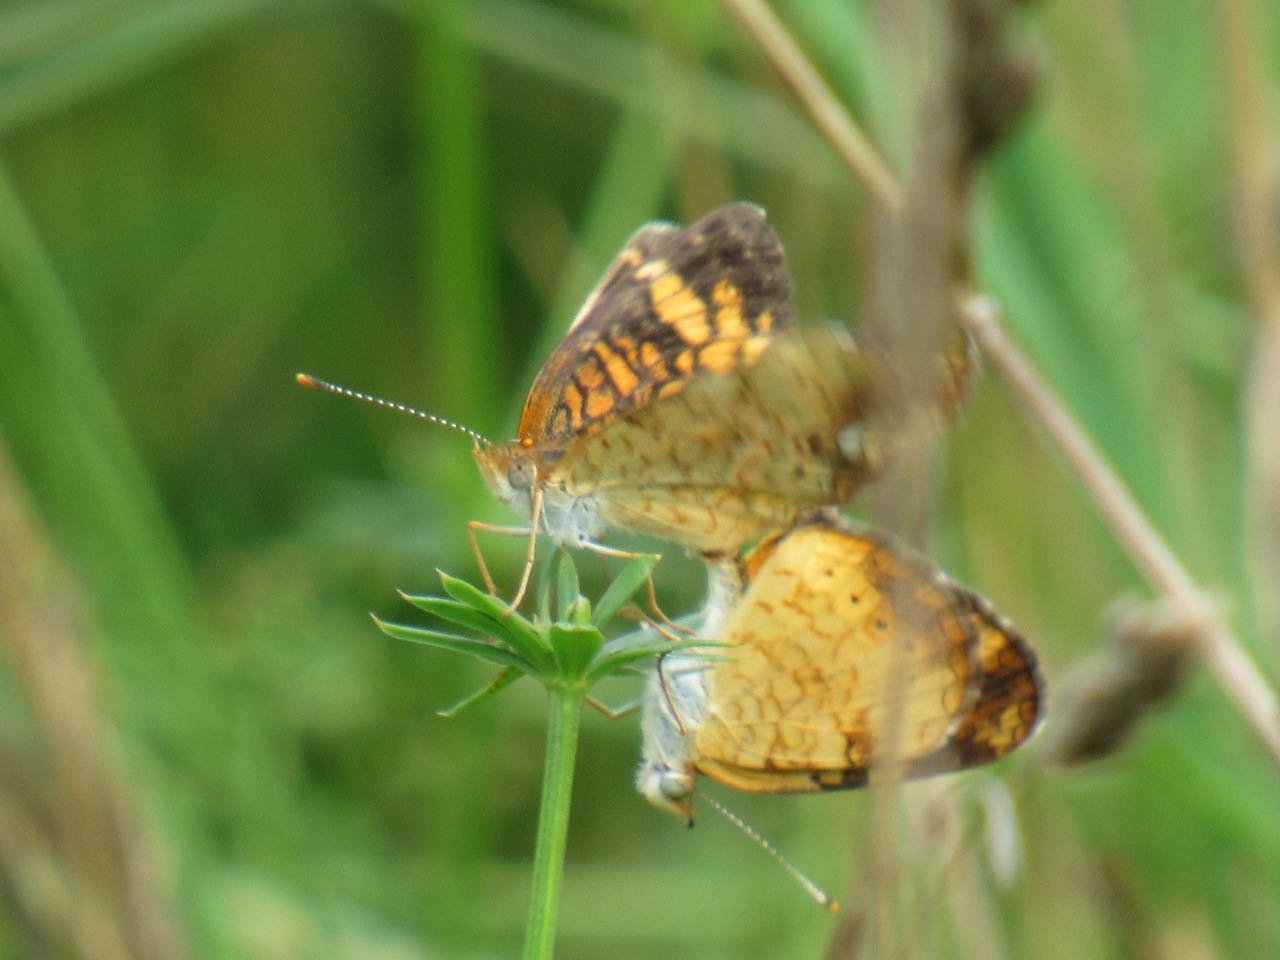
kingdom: Animalia
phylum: Arthropoda
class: Insecta
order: Lepidoptera
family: Nymphalidae
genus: Phyciodes
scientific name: Phyciodes tharos
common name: Pearl Crescent
